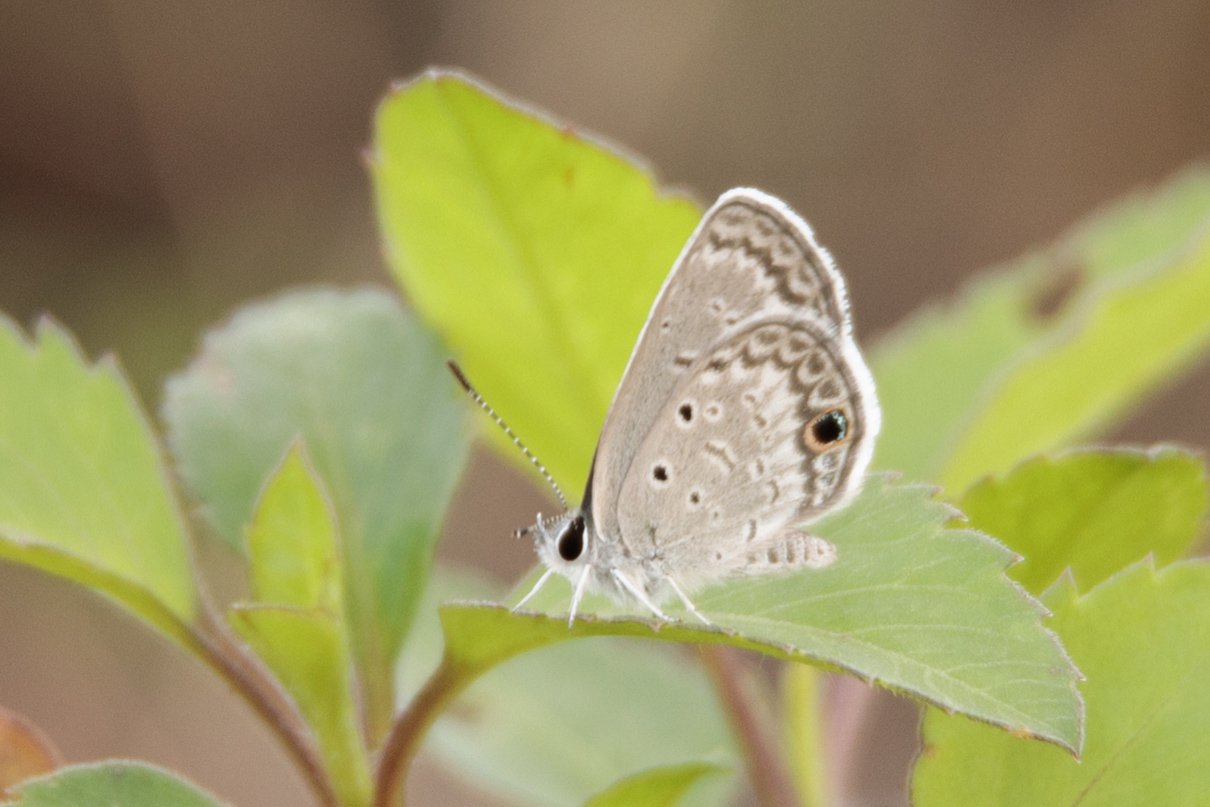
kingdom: Animalia
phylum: Arthropoda
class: Insecta
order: Lepidoptera
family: Lycaenidae
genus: Hemiargus
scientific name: Hemiargus ceraunus
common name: Ceraunus Blue
